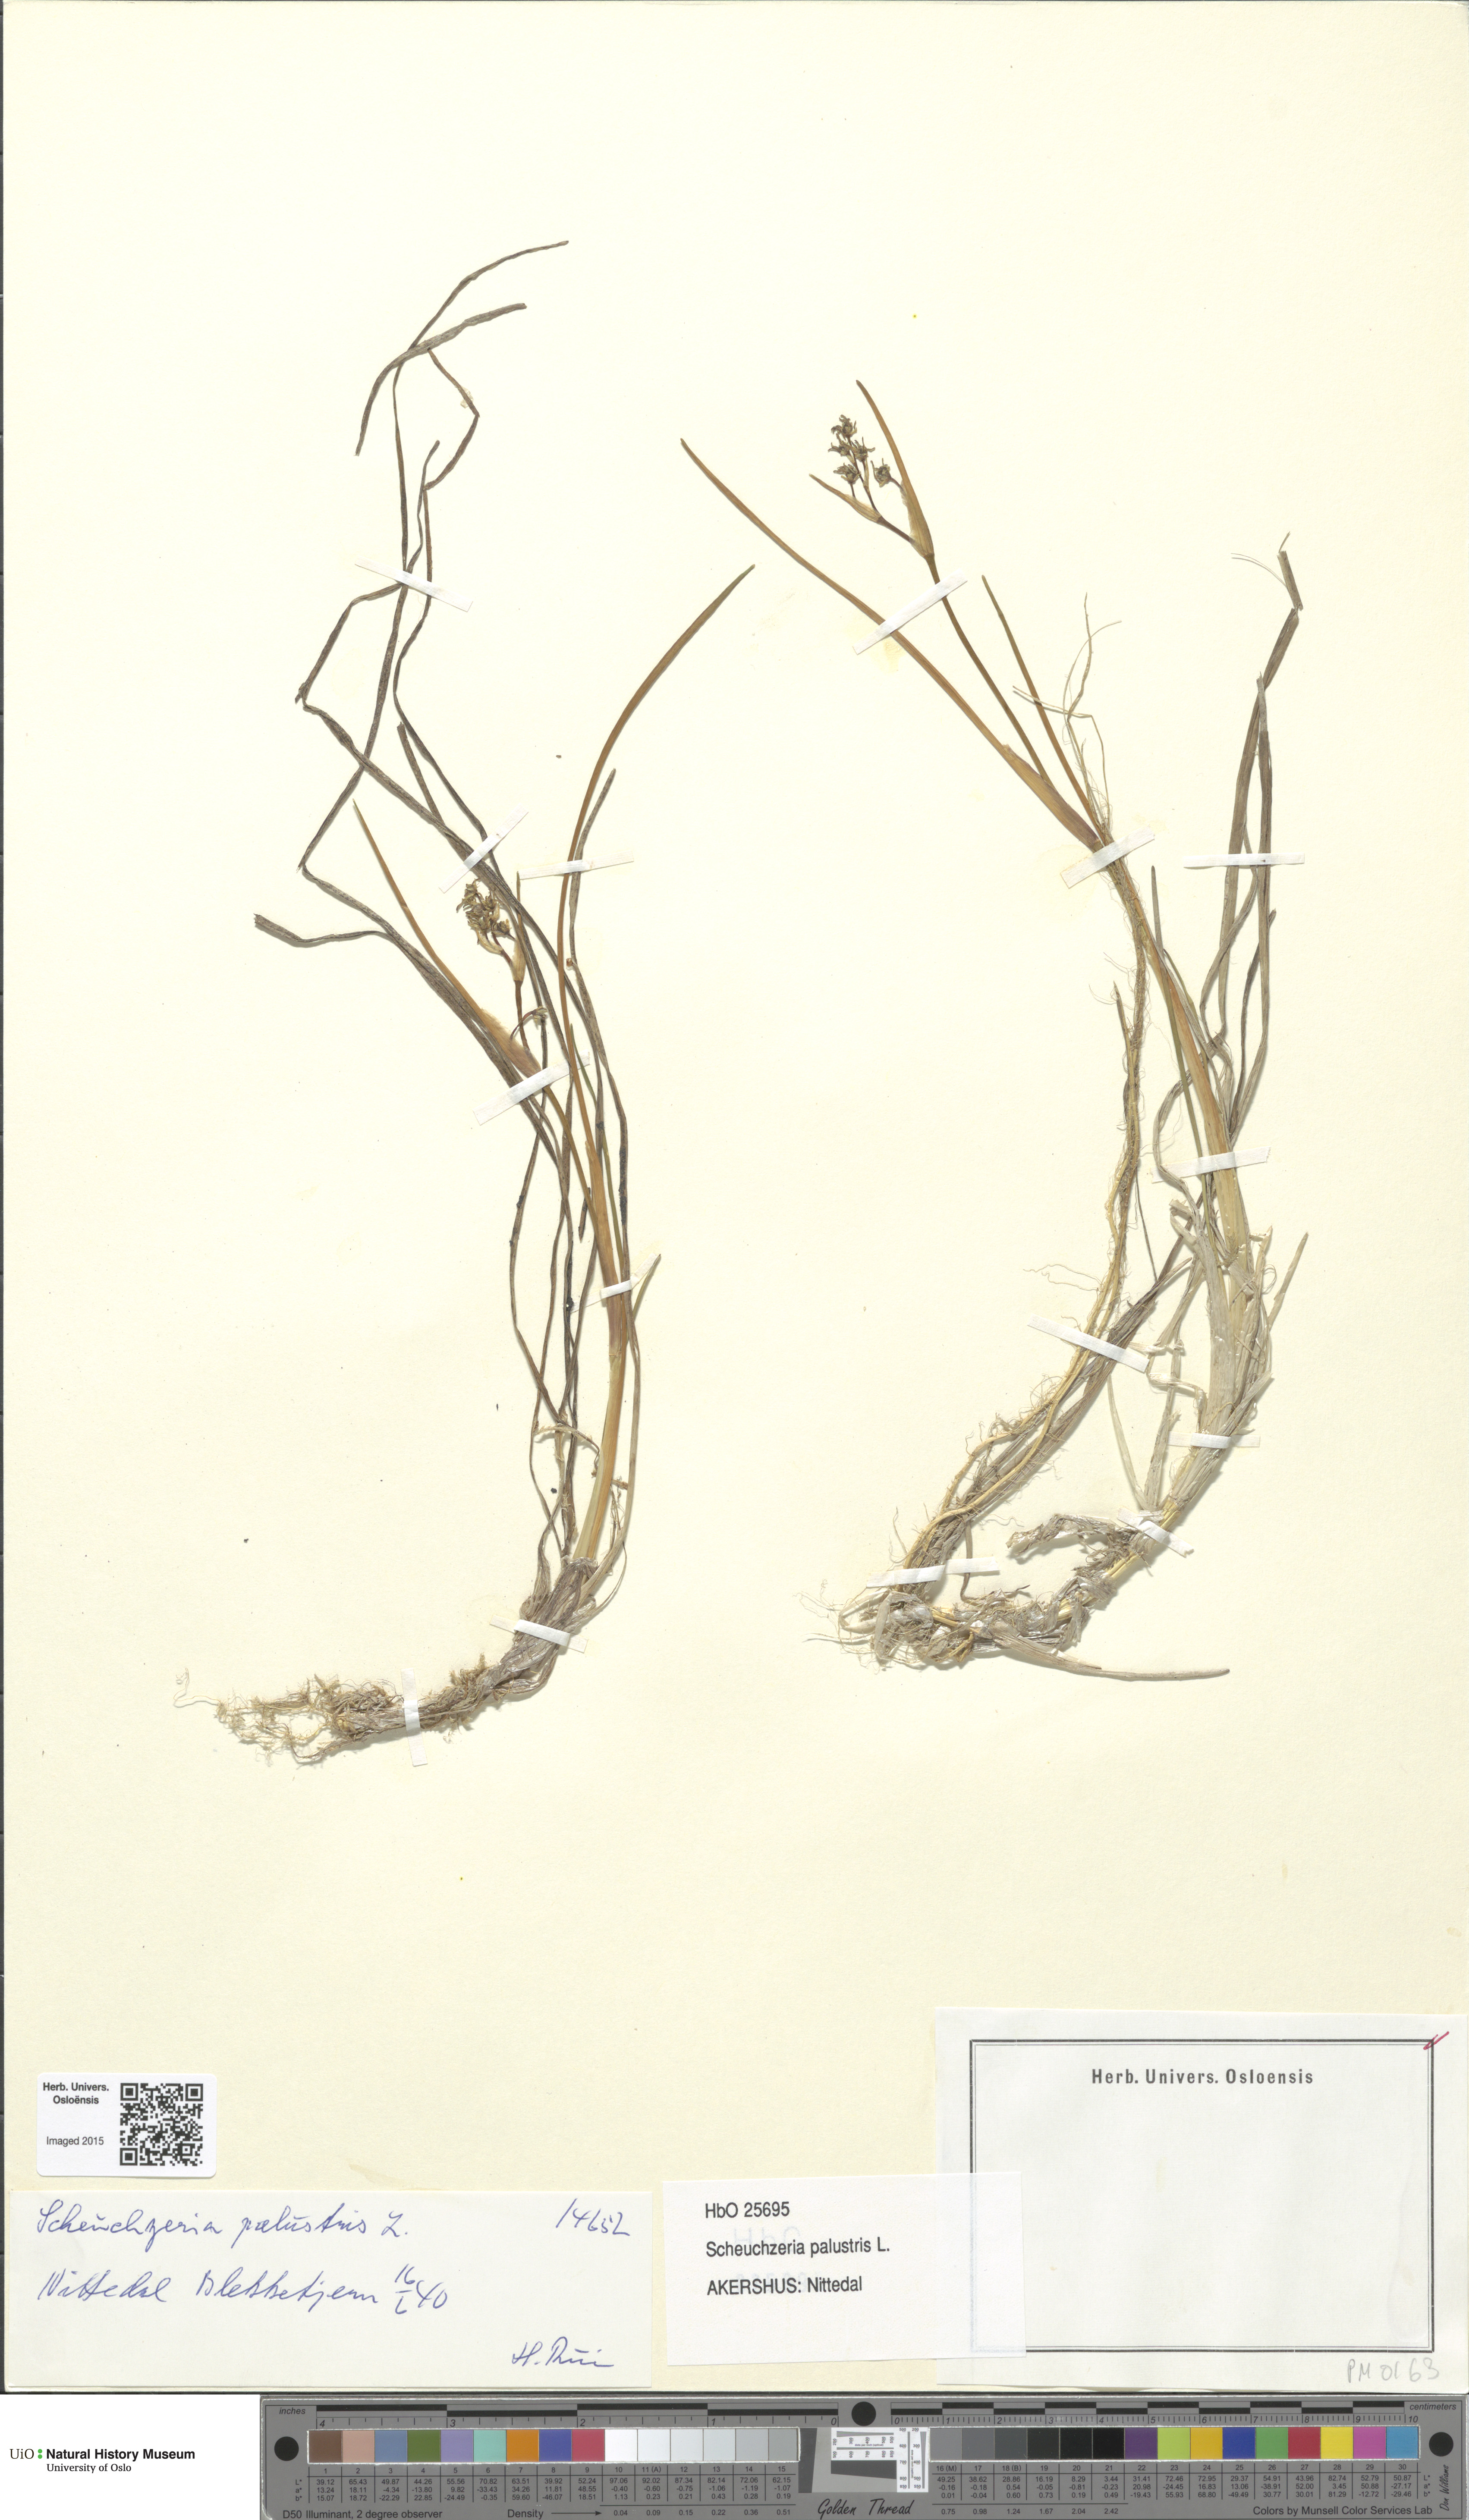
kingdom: Plantae
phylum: Tracheophyta
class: Liliopsida
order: Alismatales
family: Scheuchzeriaceae
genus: Scheuchzeria
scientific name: Scheuchzeria palustris
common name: Rannoch-rush
